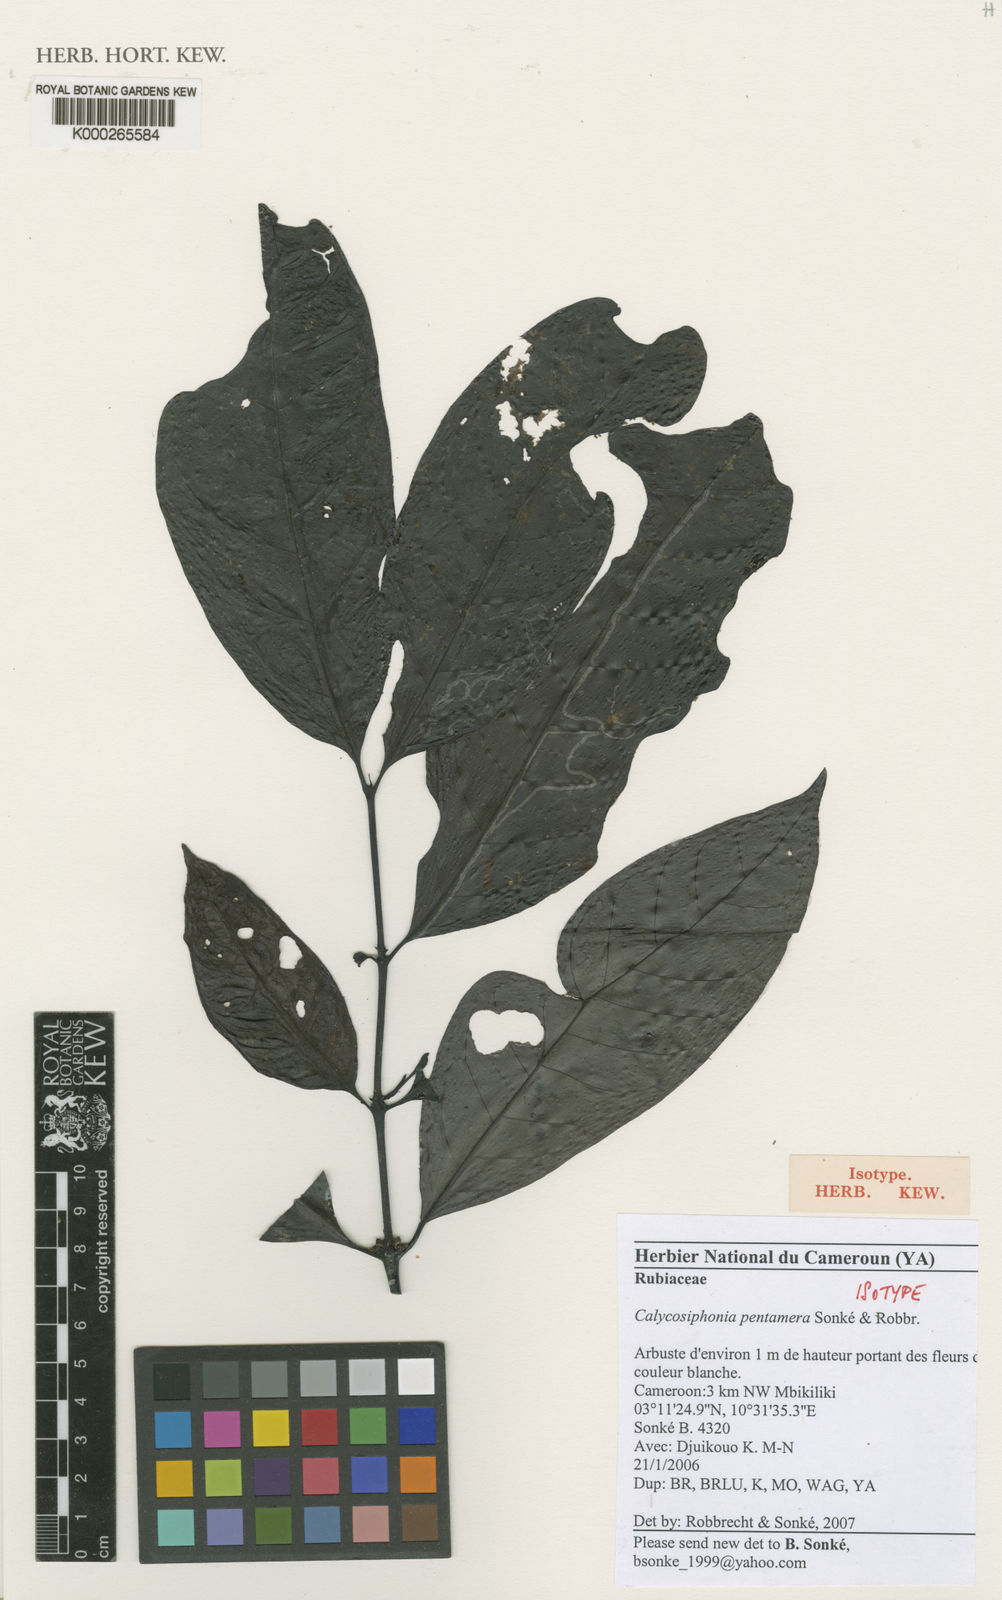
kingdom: Plantae
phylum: Tracheophyta
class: Magnoliopsida
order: Gentianales
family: Rubiaceae
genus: Kupeantha
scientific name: Kupeantha
